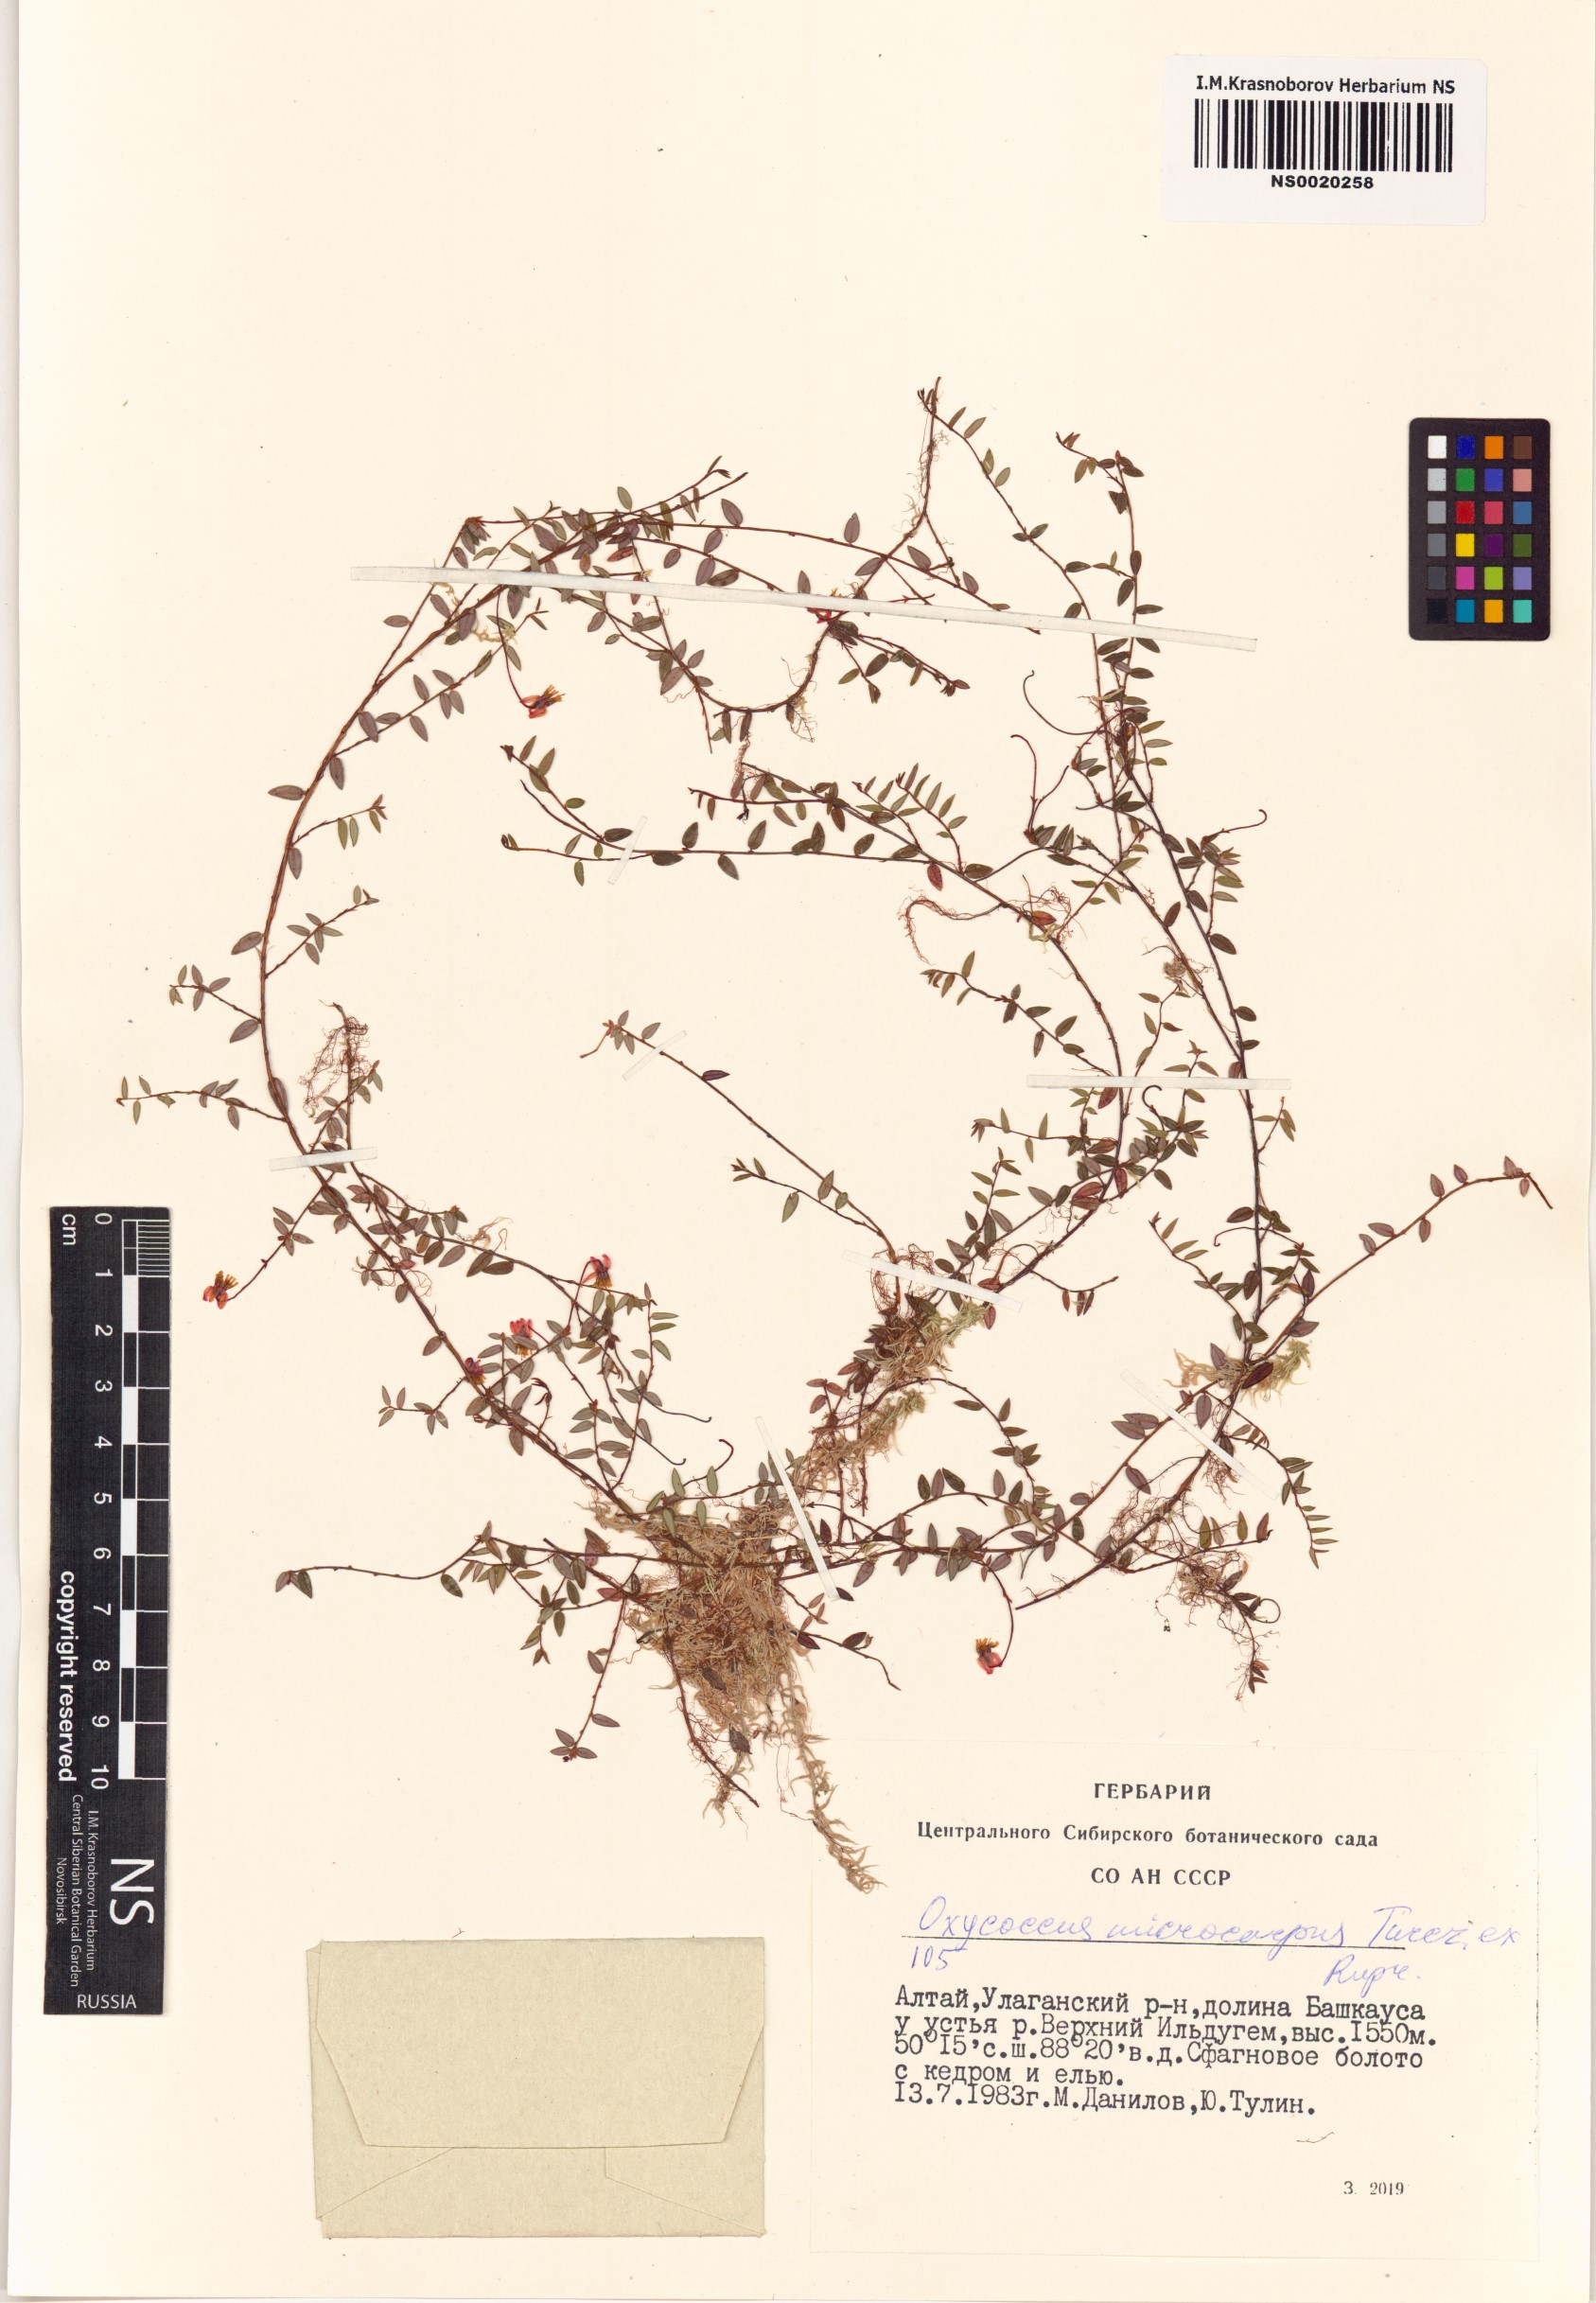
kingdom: Plantae
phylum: Tracheophyta
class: Magnoliopsida
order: Ericales
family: Ericaceae
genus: Vaccinium
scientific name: Vaccinium microcarpum
